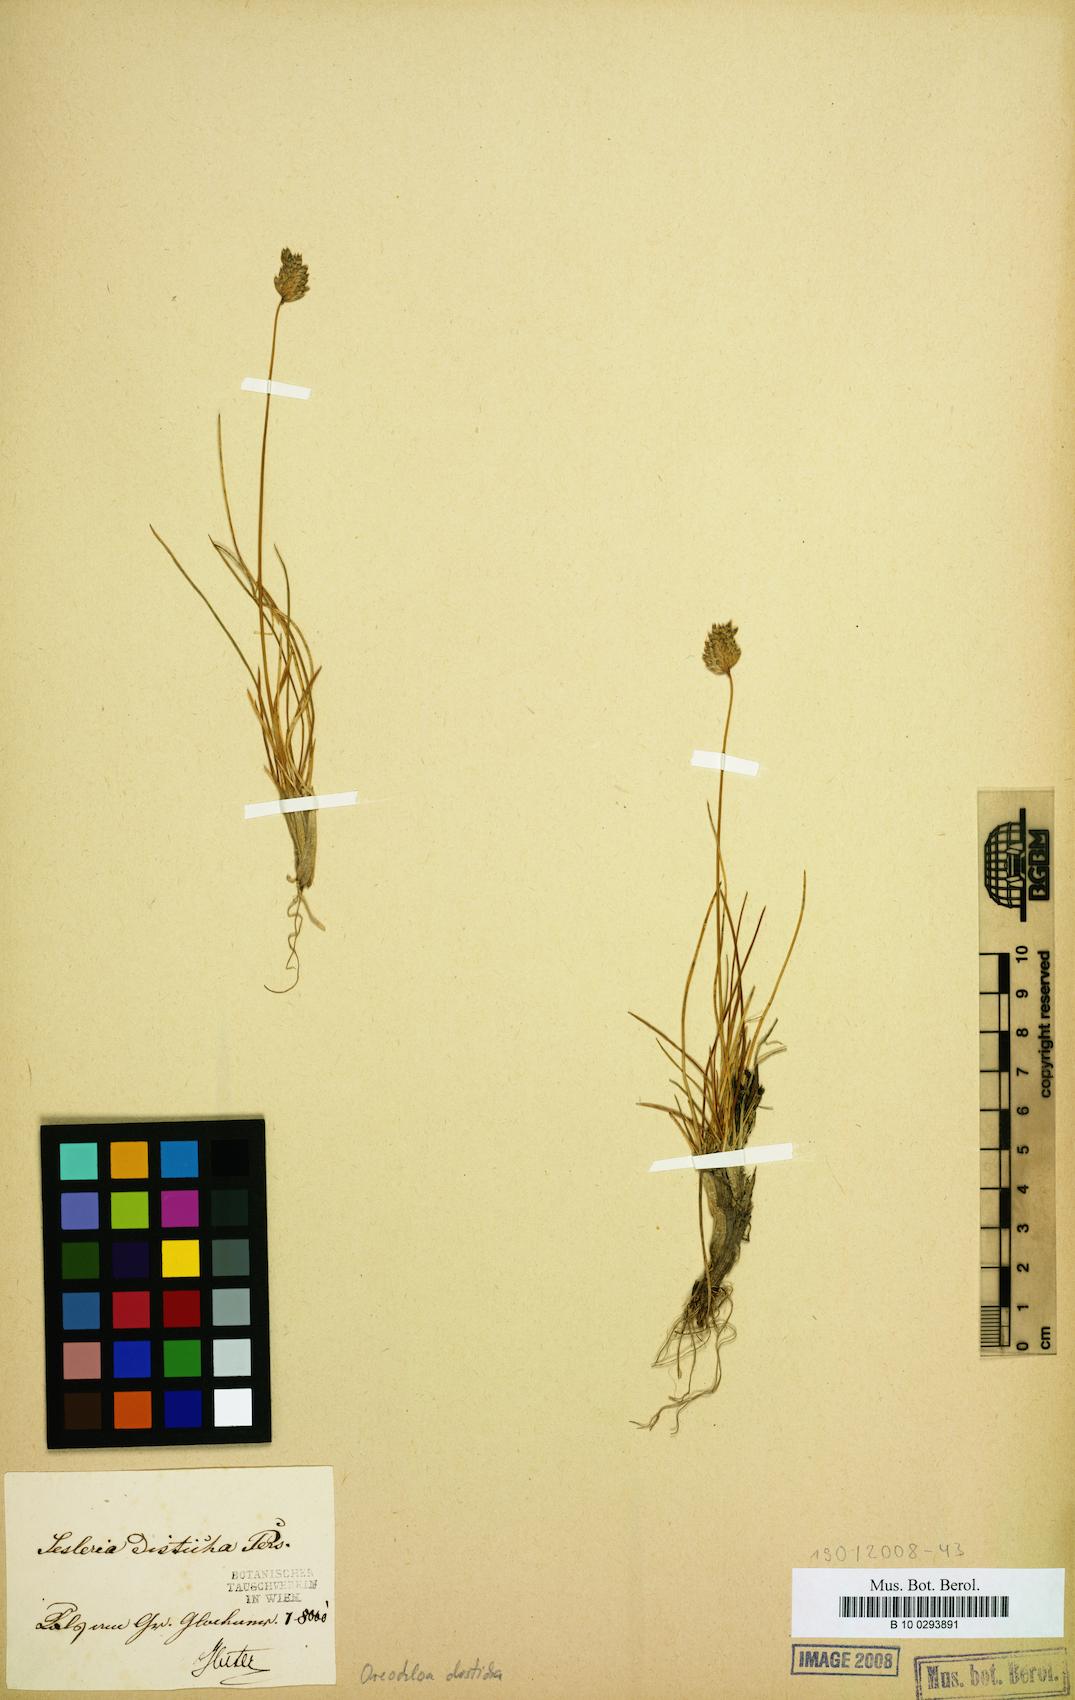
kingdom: Plantae
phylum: Tracheophyta
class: Liliopsida
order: Poales
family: Poaceae
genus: Oreochloa
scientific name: Oreochloa disticha
